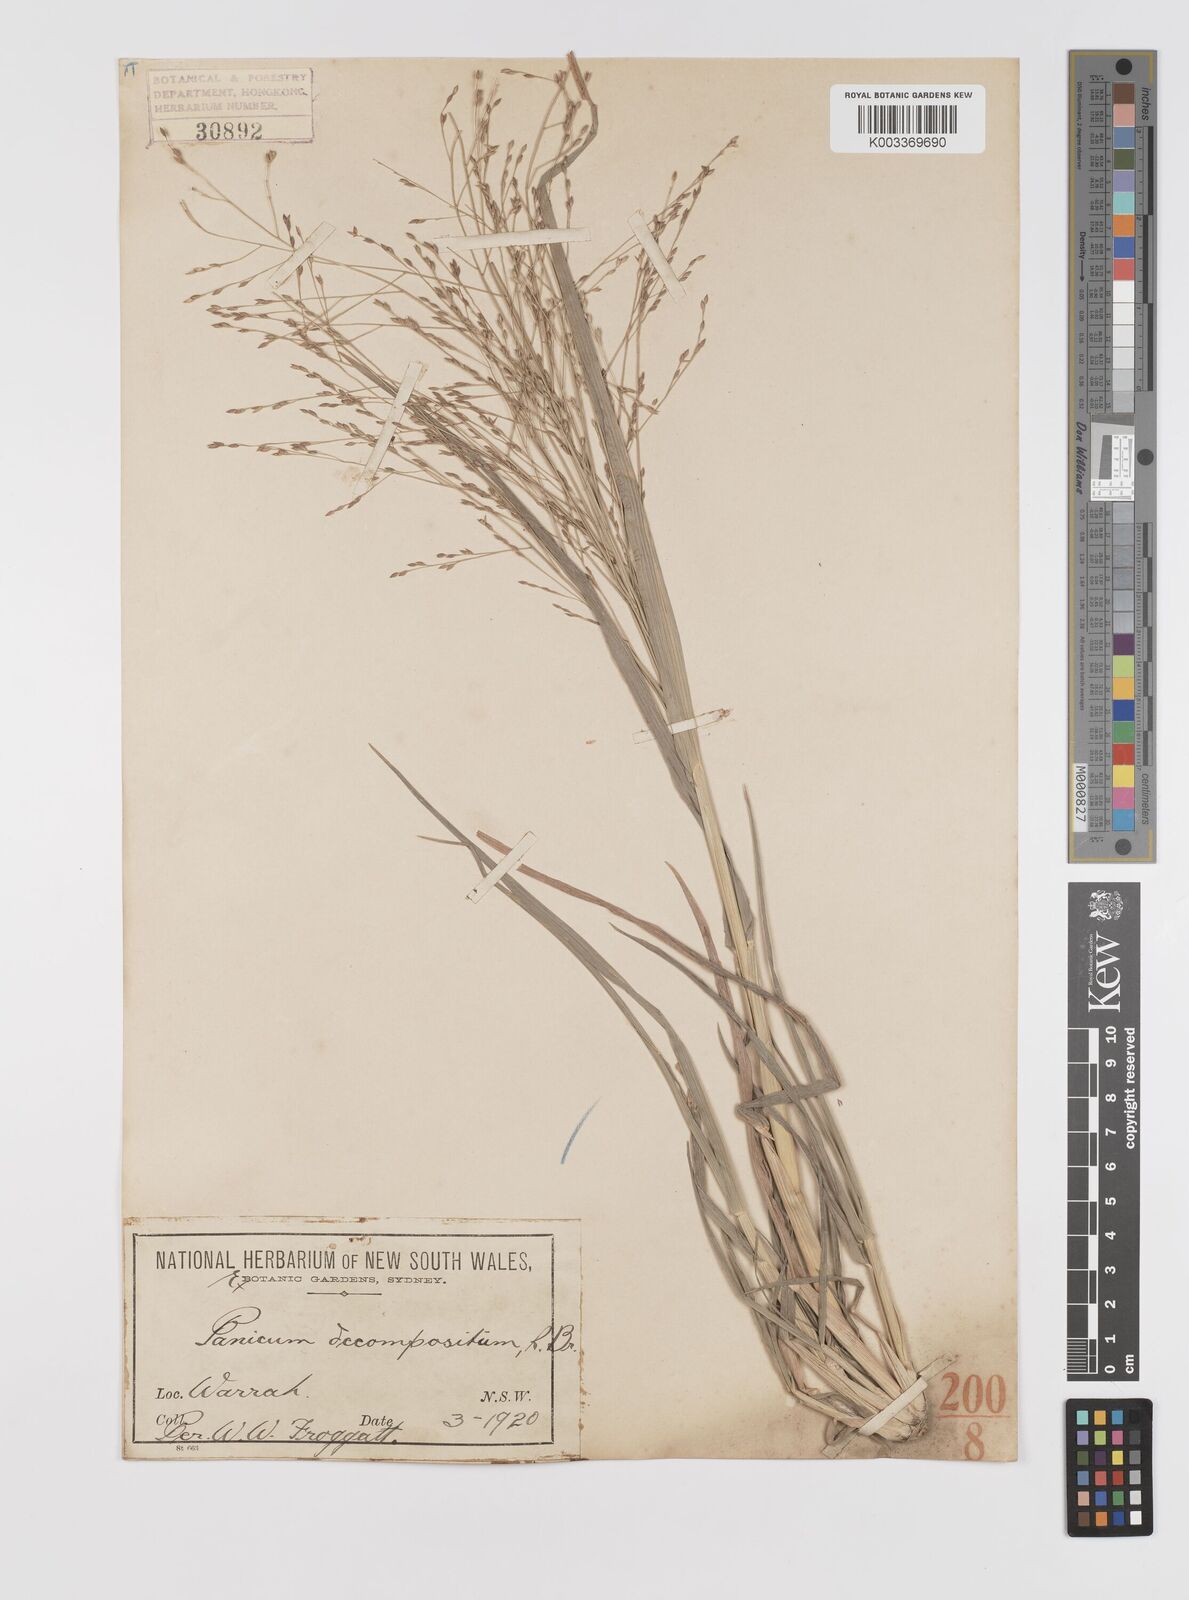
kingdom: Plantae
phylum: Tracheophyta
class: Liliopsida
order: Poales
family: Poaceae
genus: Panicum
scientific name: Panicum decompositum
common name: Australian millet
